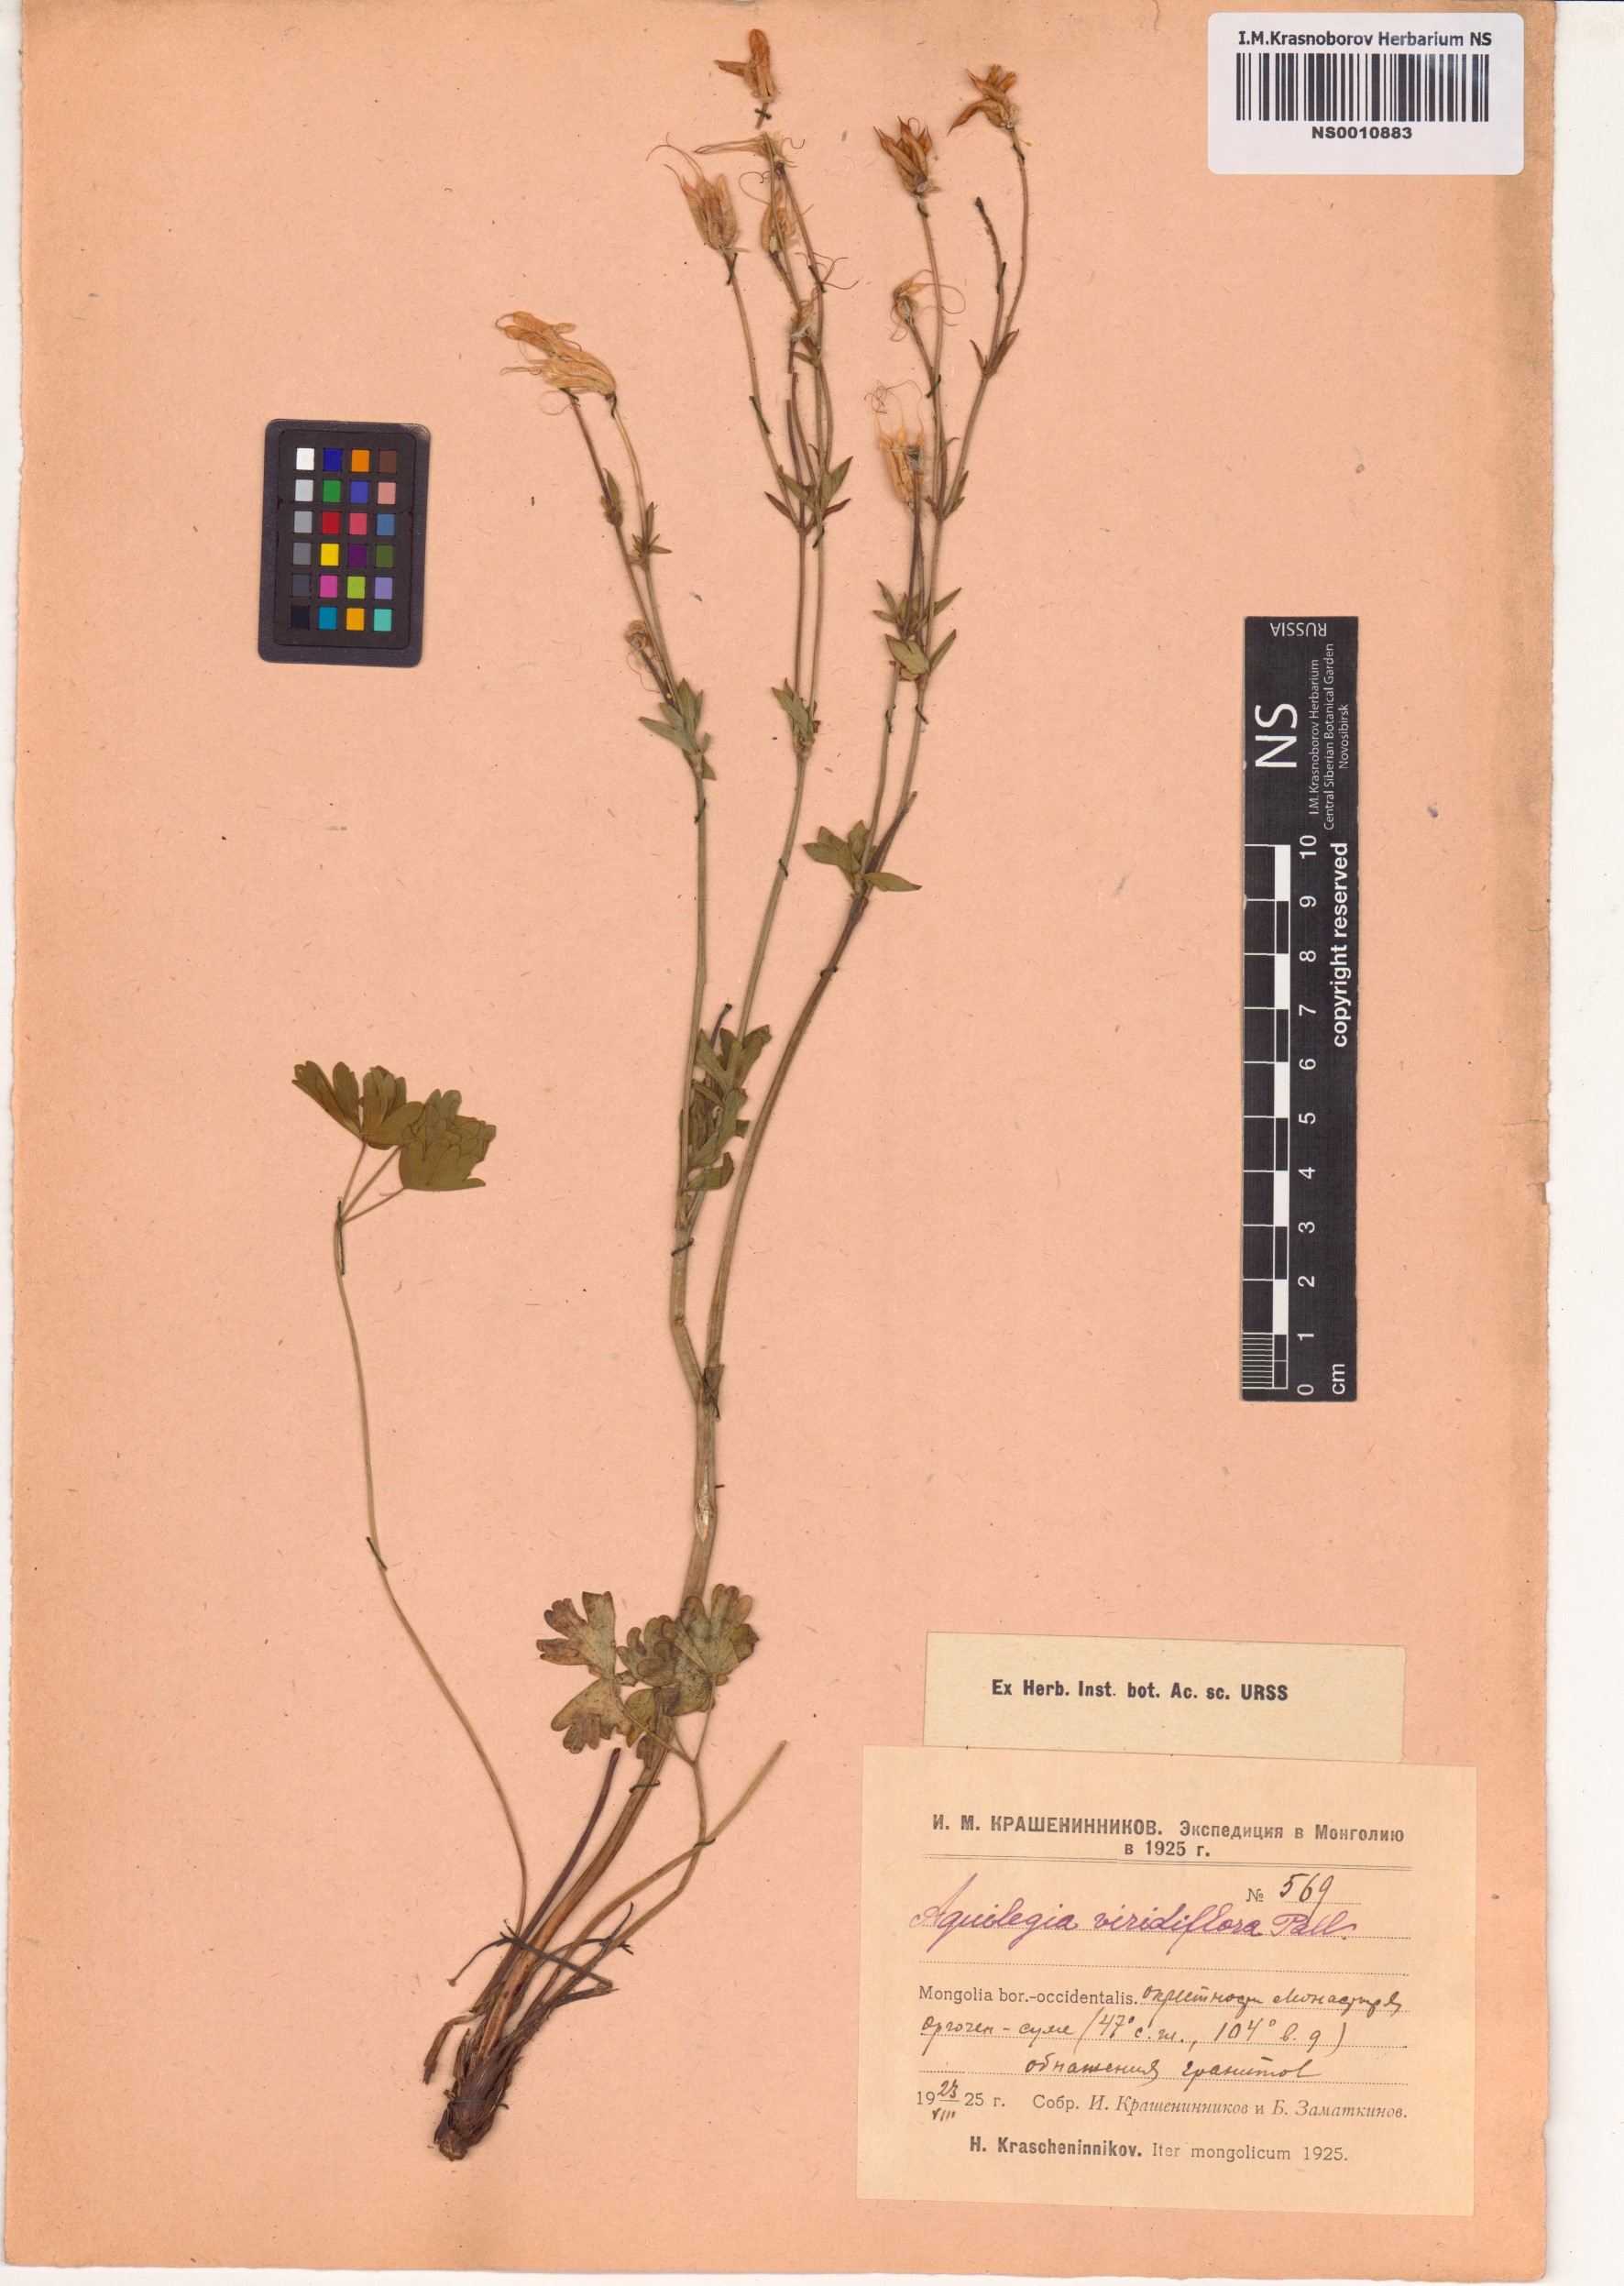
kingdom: Plantae
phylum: Tracheophyta
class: Magnoliopsida
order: Ranunculales
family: Ranunculaceae
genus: Aquilegia
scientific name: Aquilegia viridiflora
